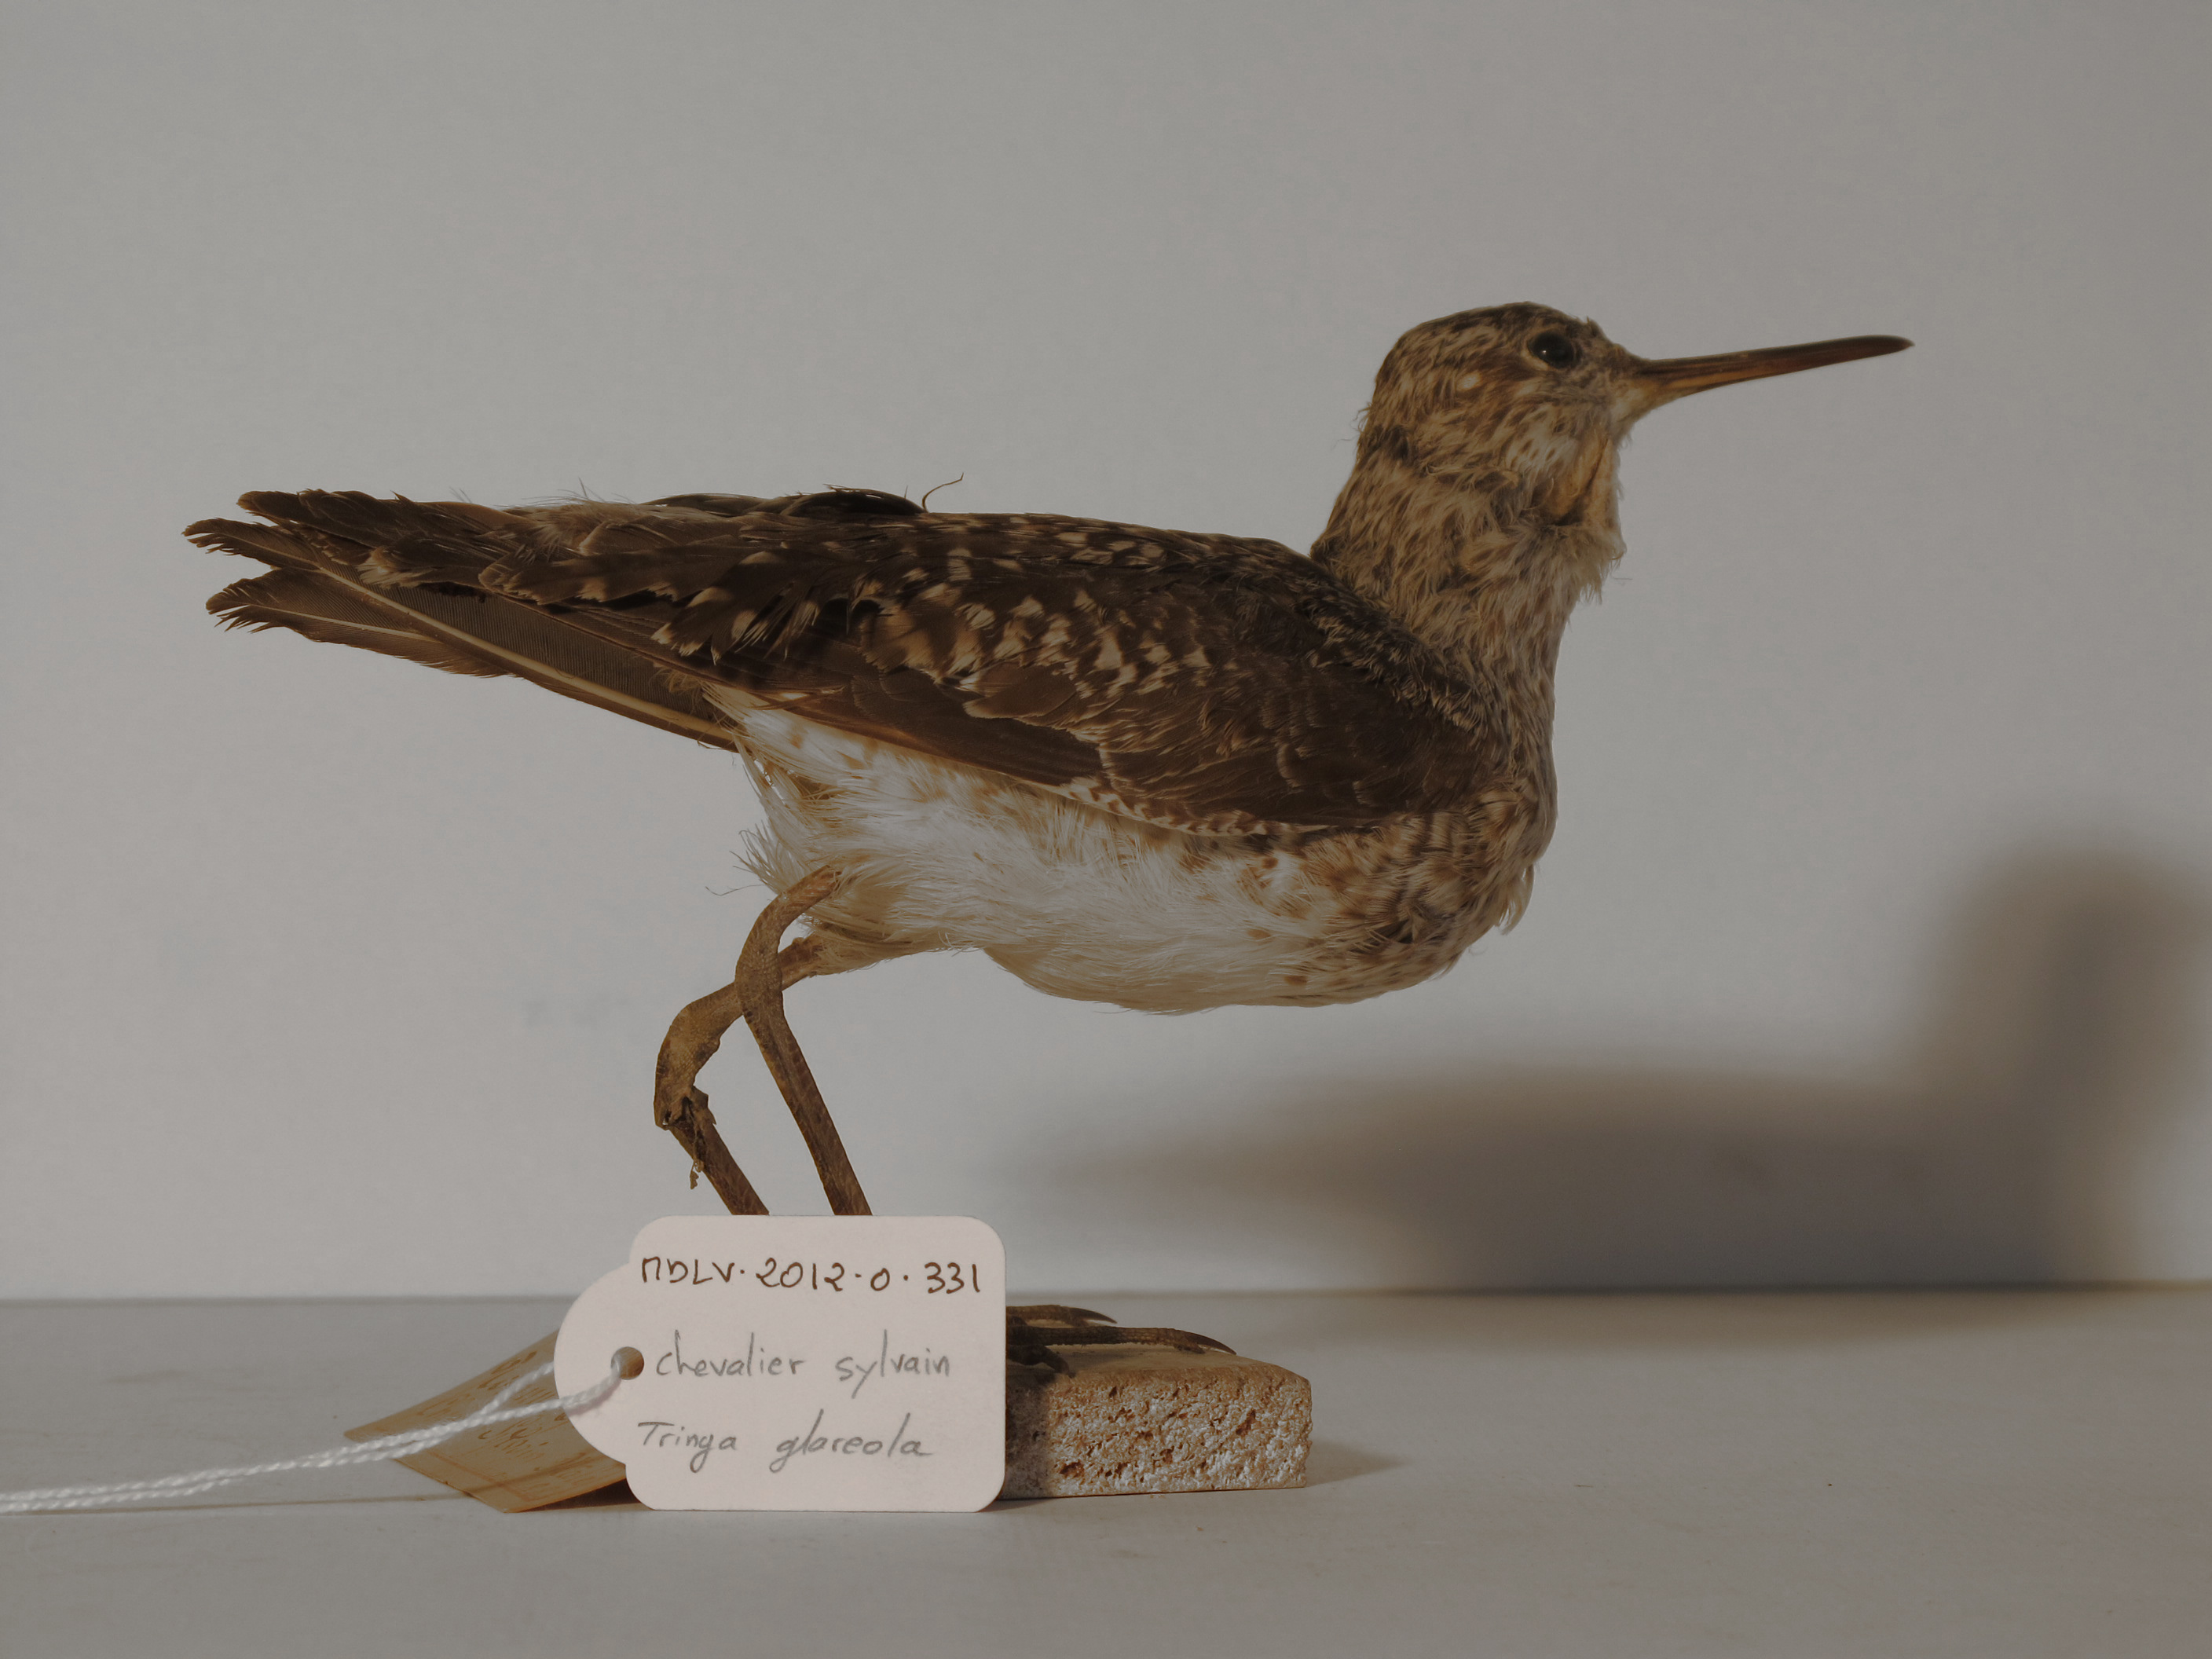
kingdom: Animalia
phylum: Chordata
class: Aves
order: Charadriiformes
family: Scolopacidae
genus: Tringa
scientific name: Tringa glareola
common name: Wood Sandpiper
